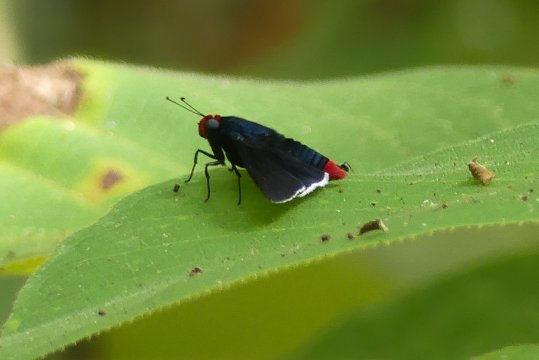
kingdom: Animalia
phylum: Arthropoda
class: Insecta
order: Lepidoptera
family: Hesperiidae
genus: Pyrrhopyge
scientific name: Pyrrhopyge phidias
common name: Red-headed Firetip
